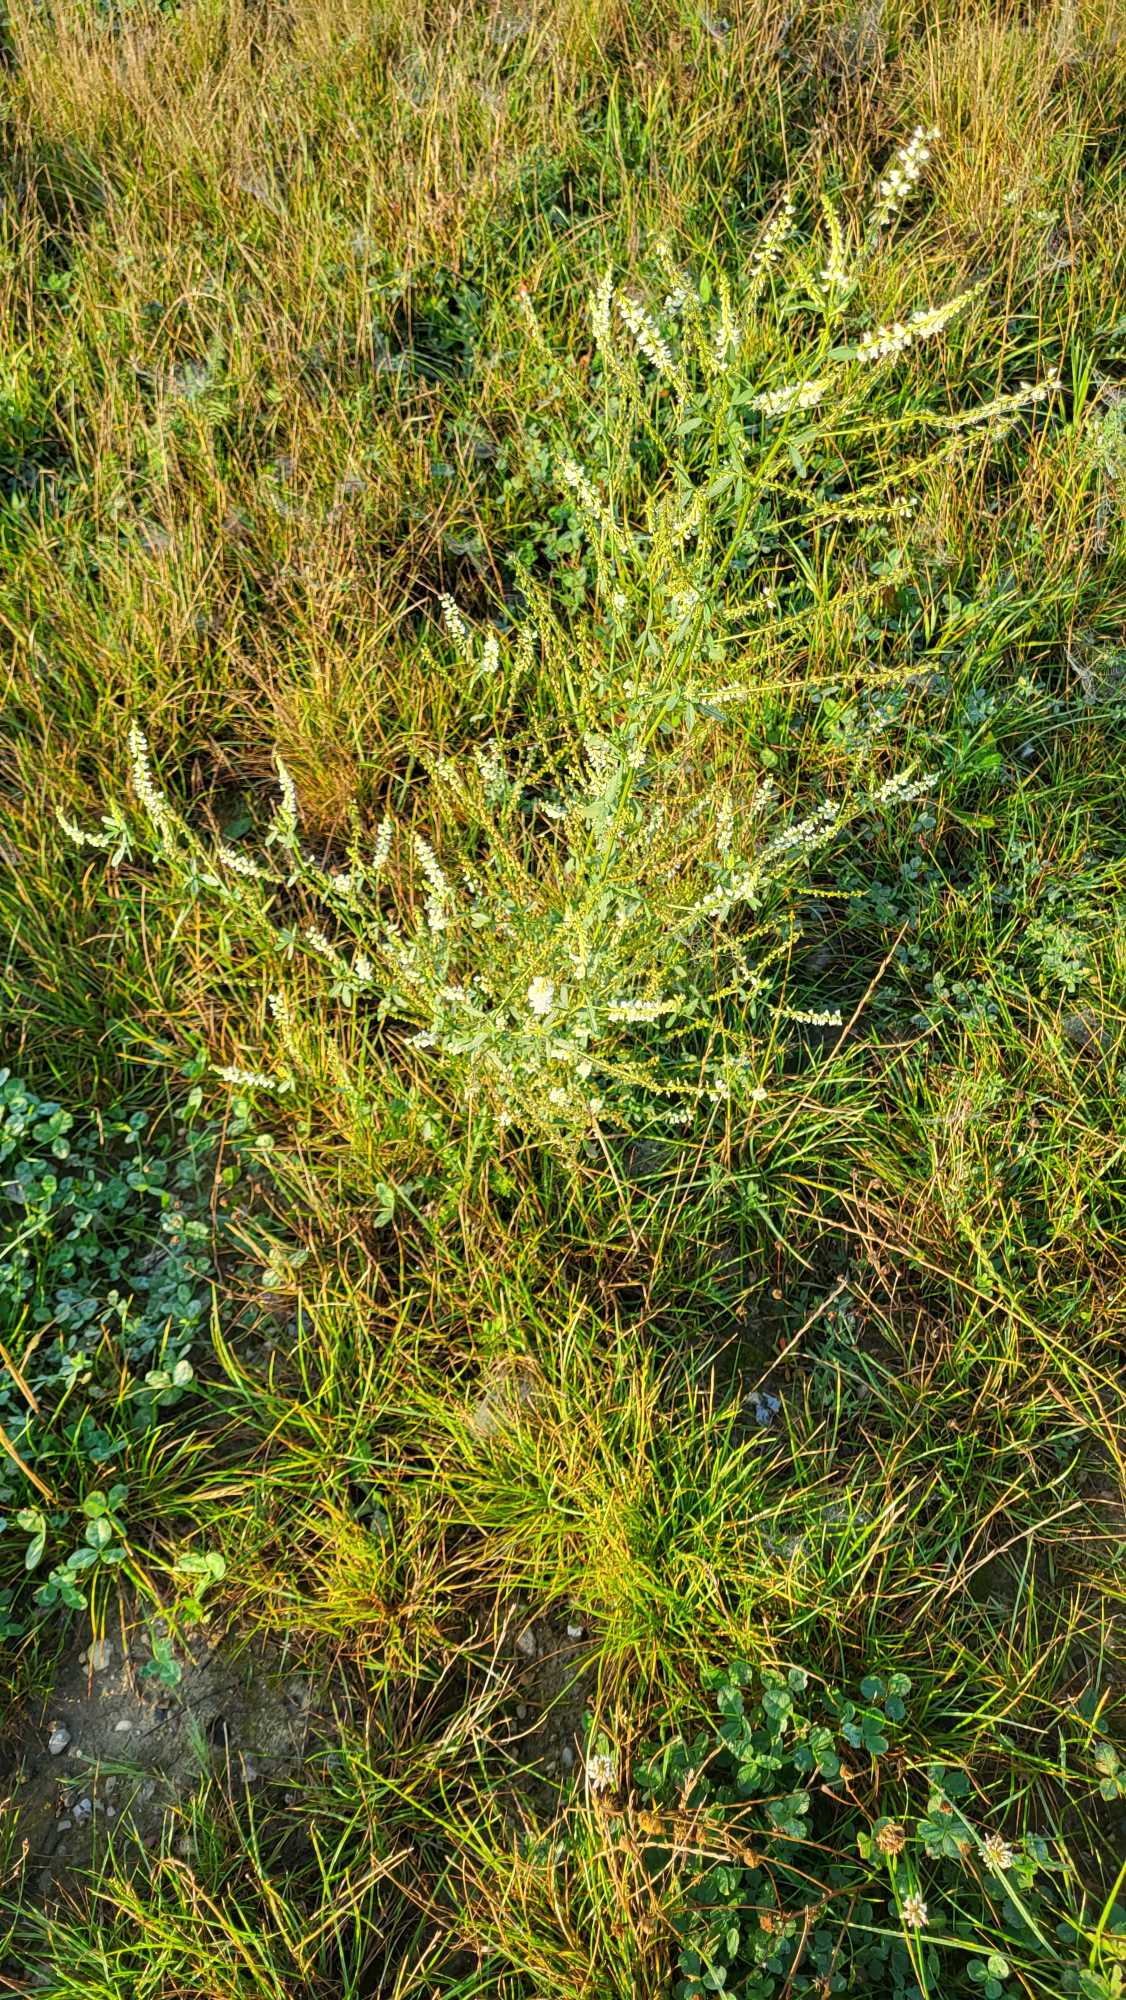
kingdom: Plantae
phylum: Tracheophyta
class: Magnoliopsida
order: Fabales
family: Fabaceae
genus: Melilotus
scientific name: Melilotus albus
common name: Hvid stenkløver
